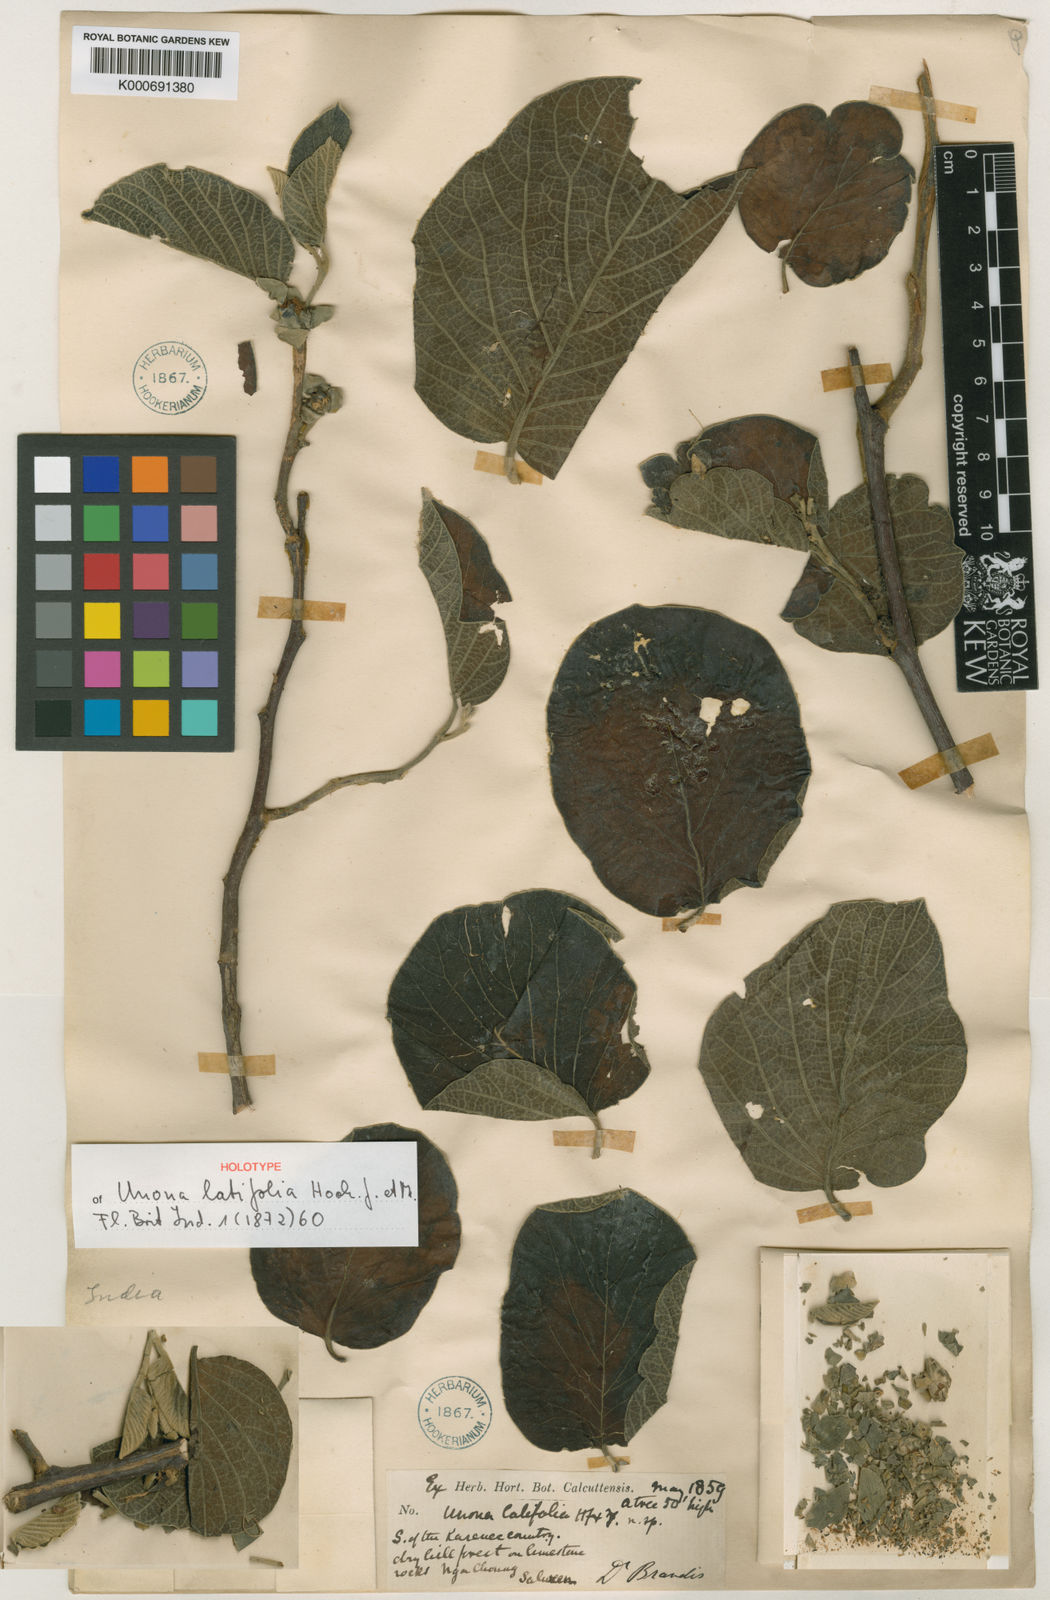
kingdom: Plantae
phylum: Tracheophyta
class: Magnoliopsida
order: Magnoliales
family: Annonaceae
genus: Cananga
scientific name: Cananga brandisiana
